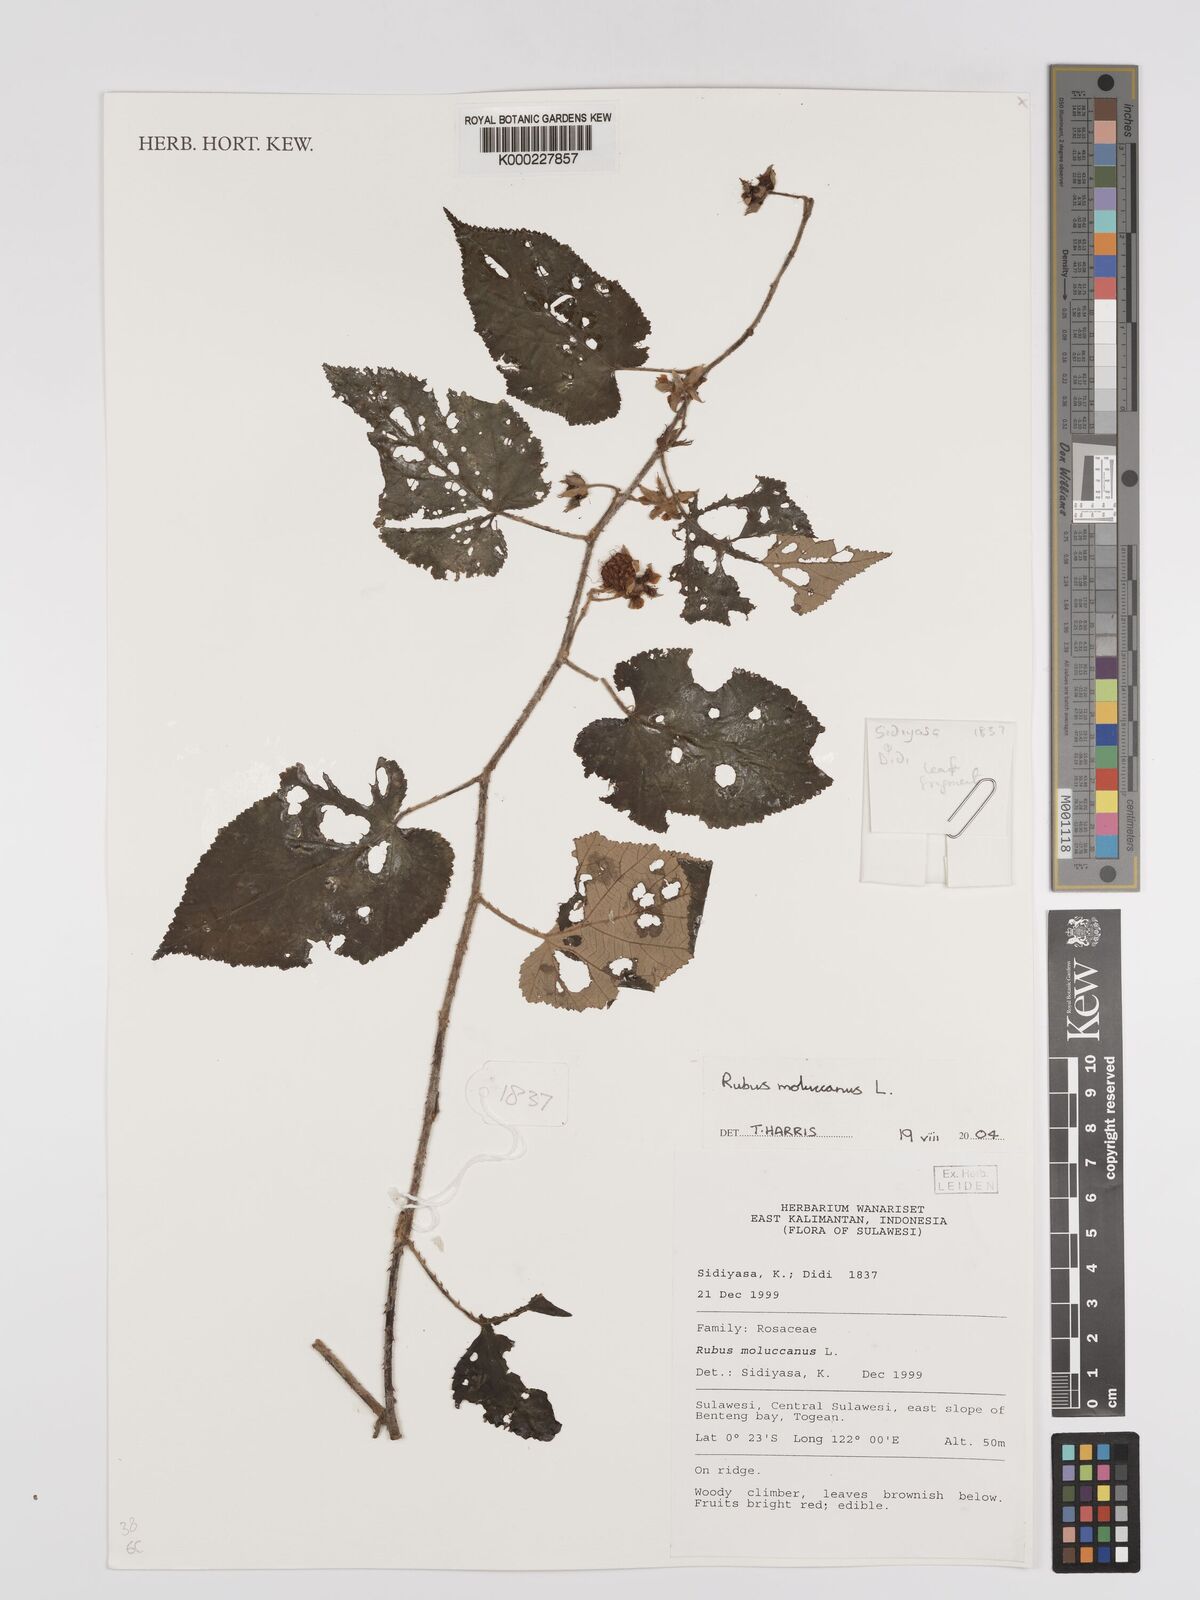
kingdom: Plantae
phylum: Tracheophyta
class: Magnoliopsida
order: Rosales
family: Rosaceae
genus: Rubus
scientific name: Rubus moluccanus
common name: Wild raspberry
